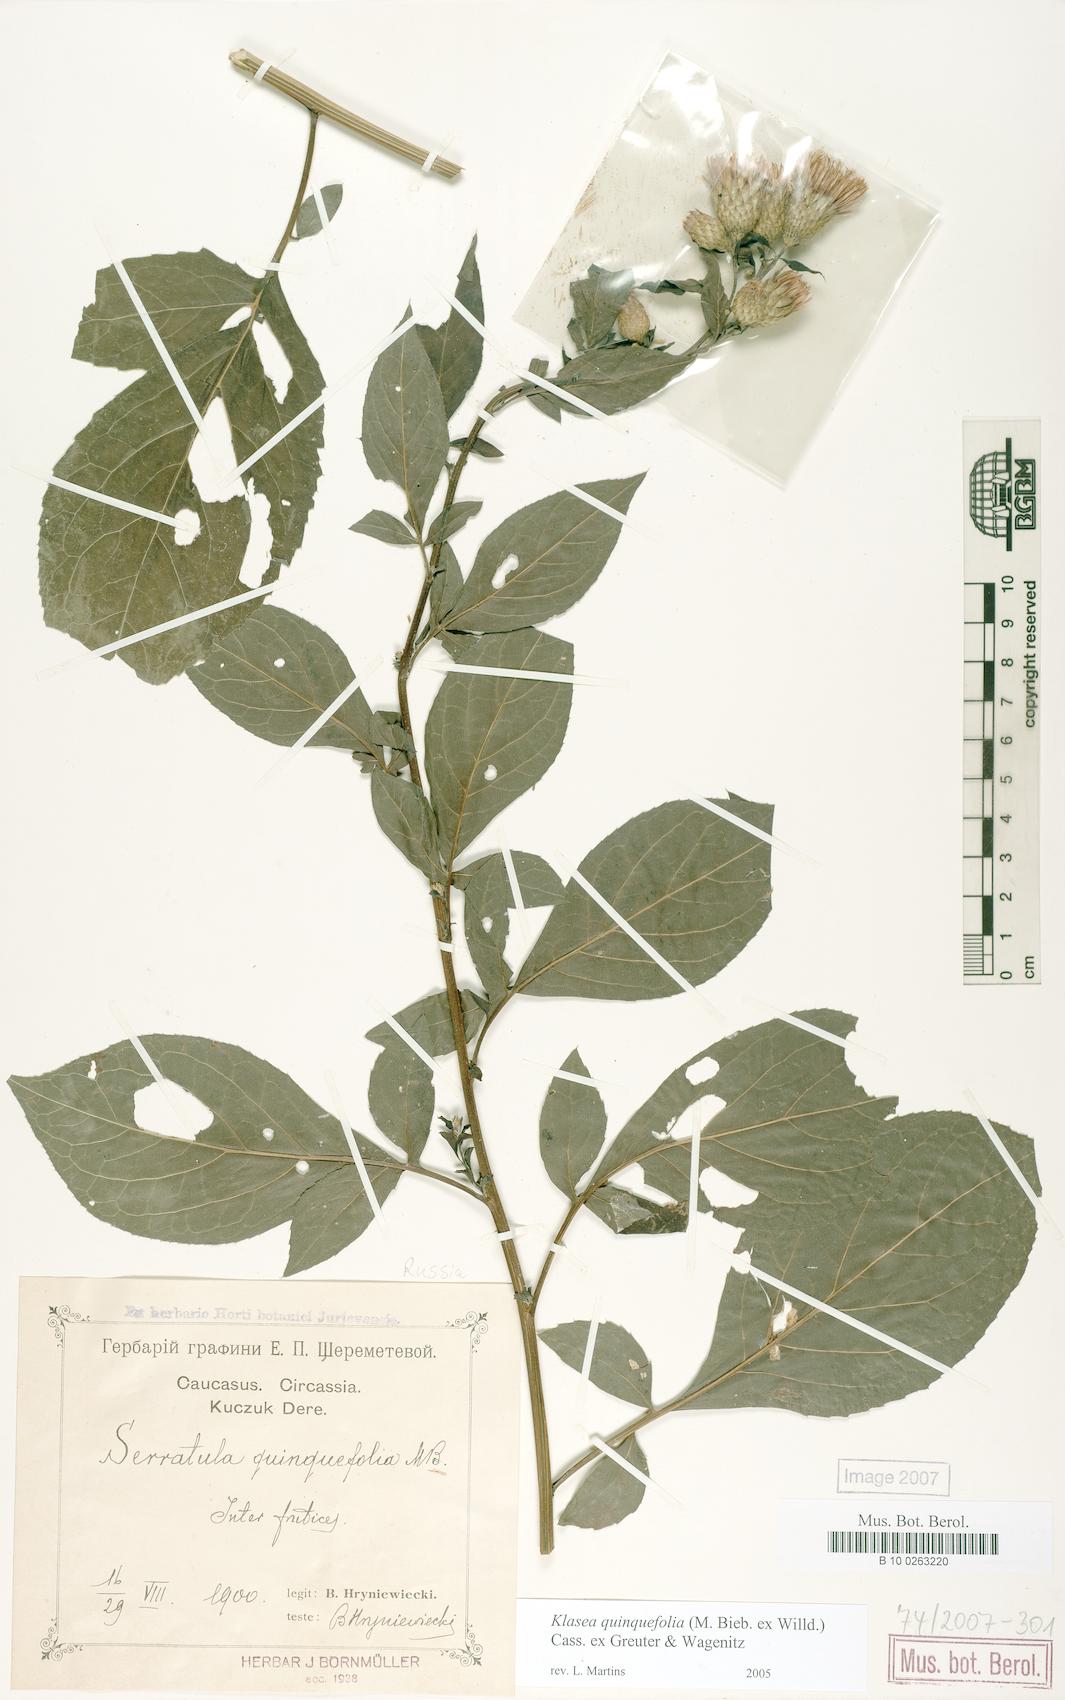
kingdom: Plantae
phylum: Tracheophyta
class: Magnoliopsida
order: Asterales
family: Asteraceae
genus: Klasea
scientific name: Klasea quinquefolia
